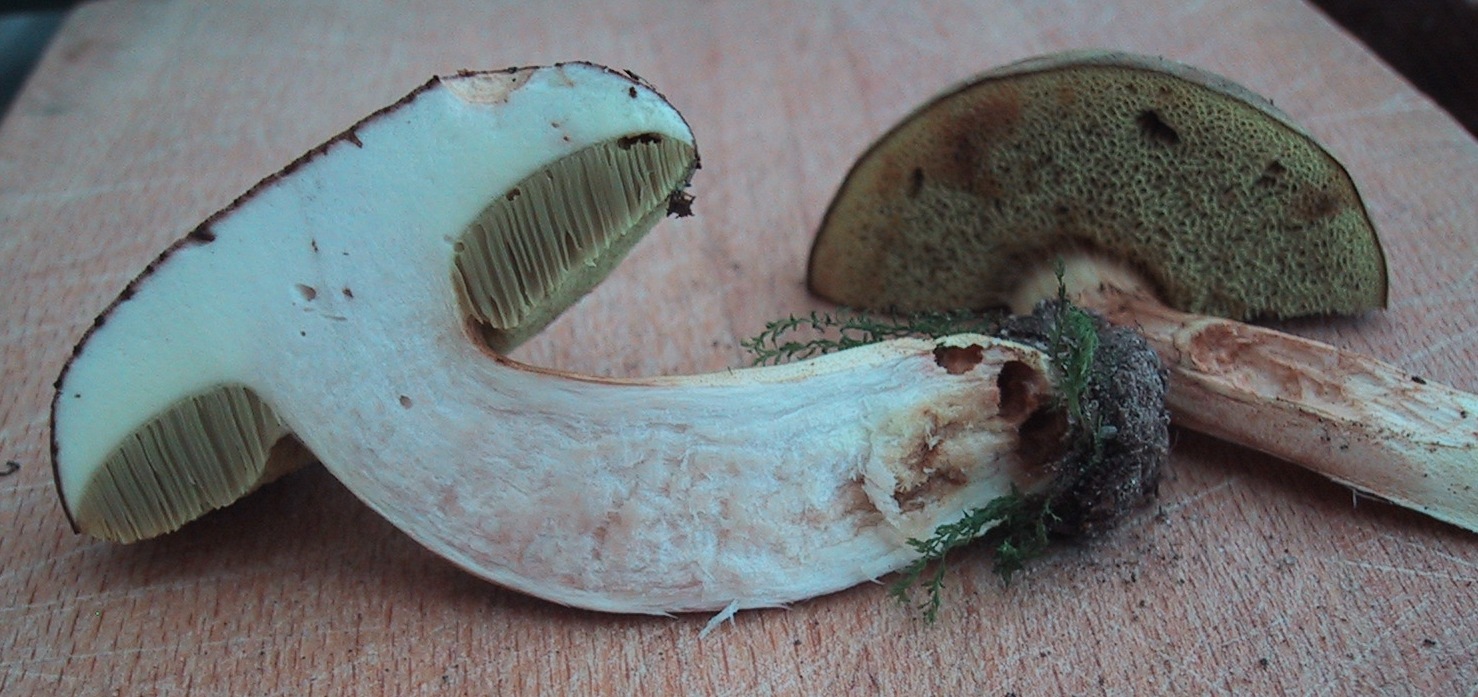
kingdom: Fungi
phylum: Basidiomycota
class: Agaricomycetes
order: Boletales
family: Boletaceae
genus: Xerocomus
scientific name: Xerocomus ferrugineus
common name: vaskeskinds-rørhat
